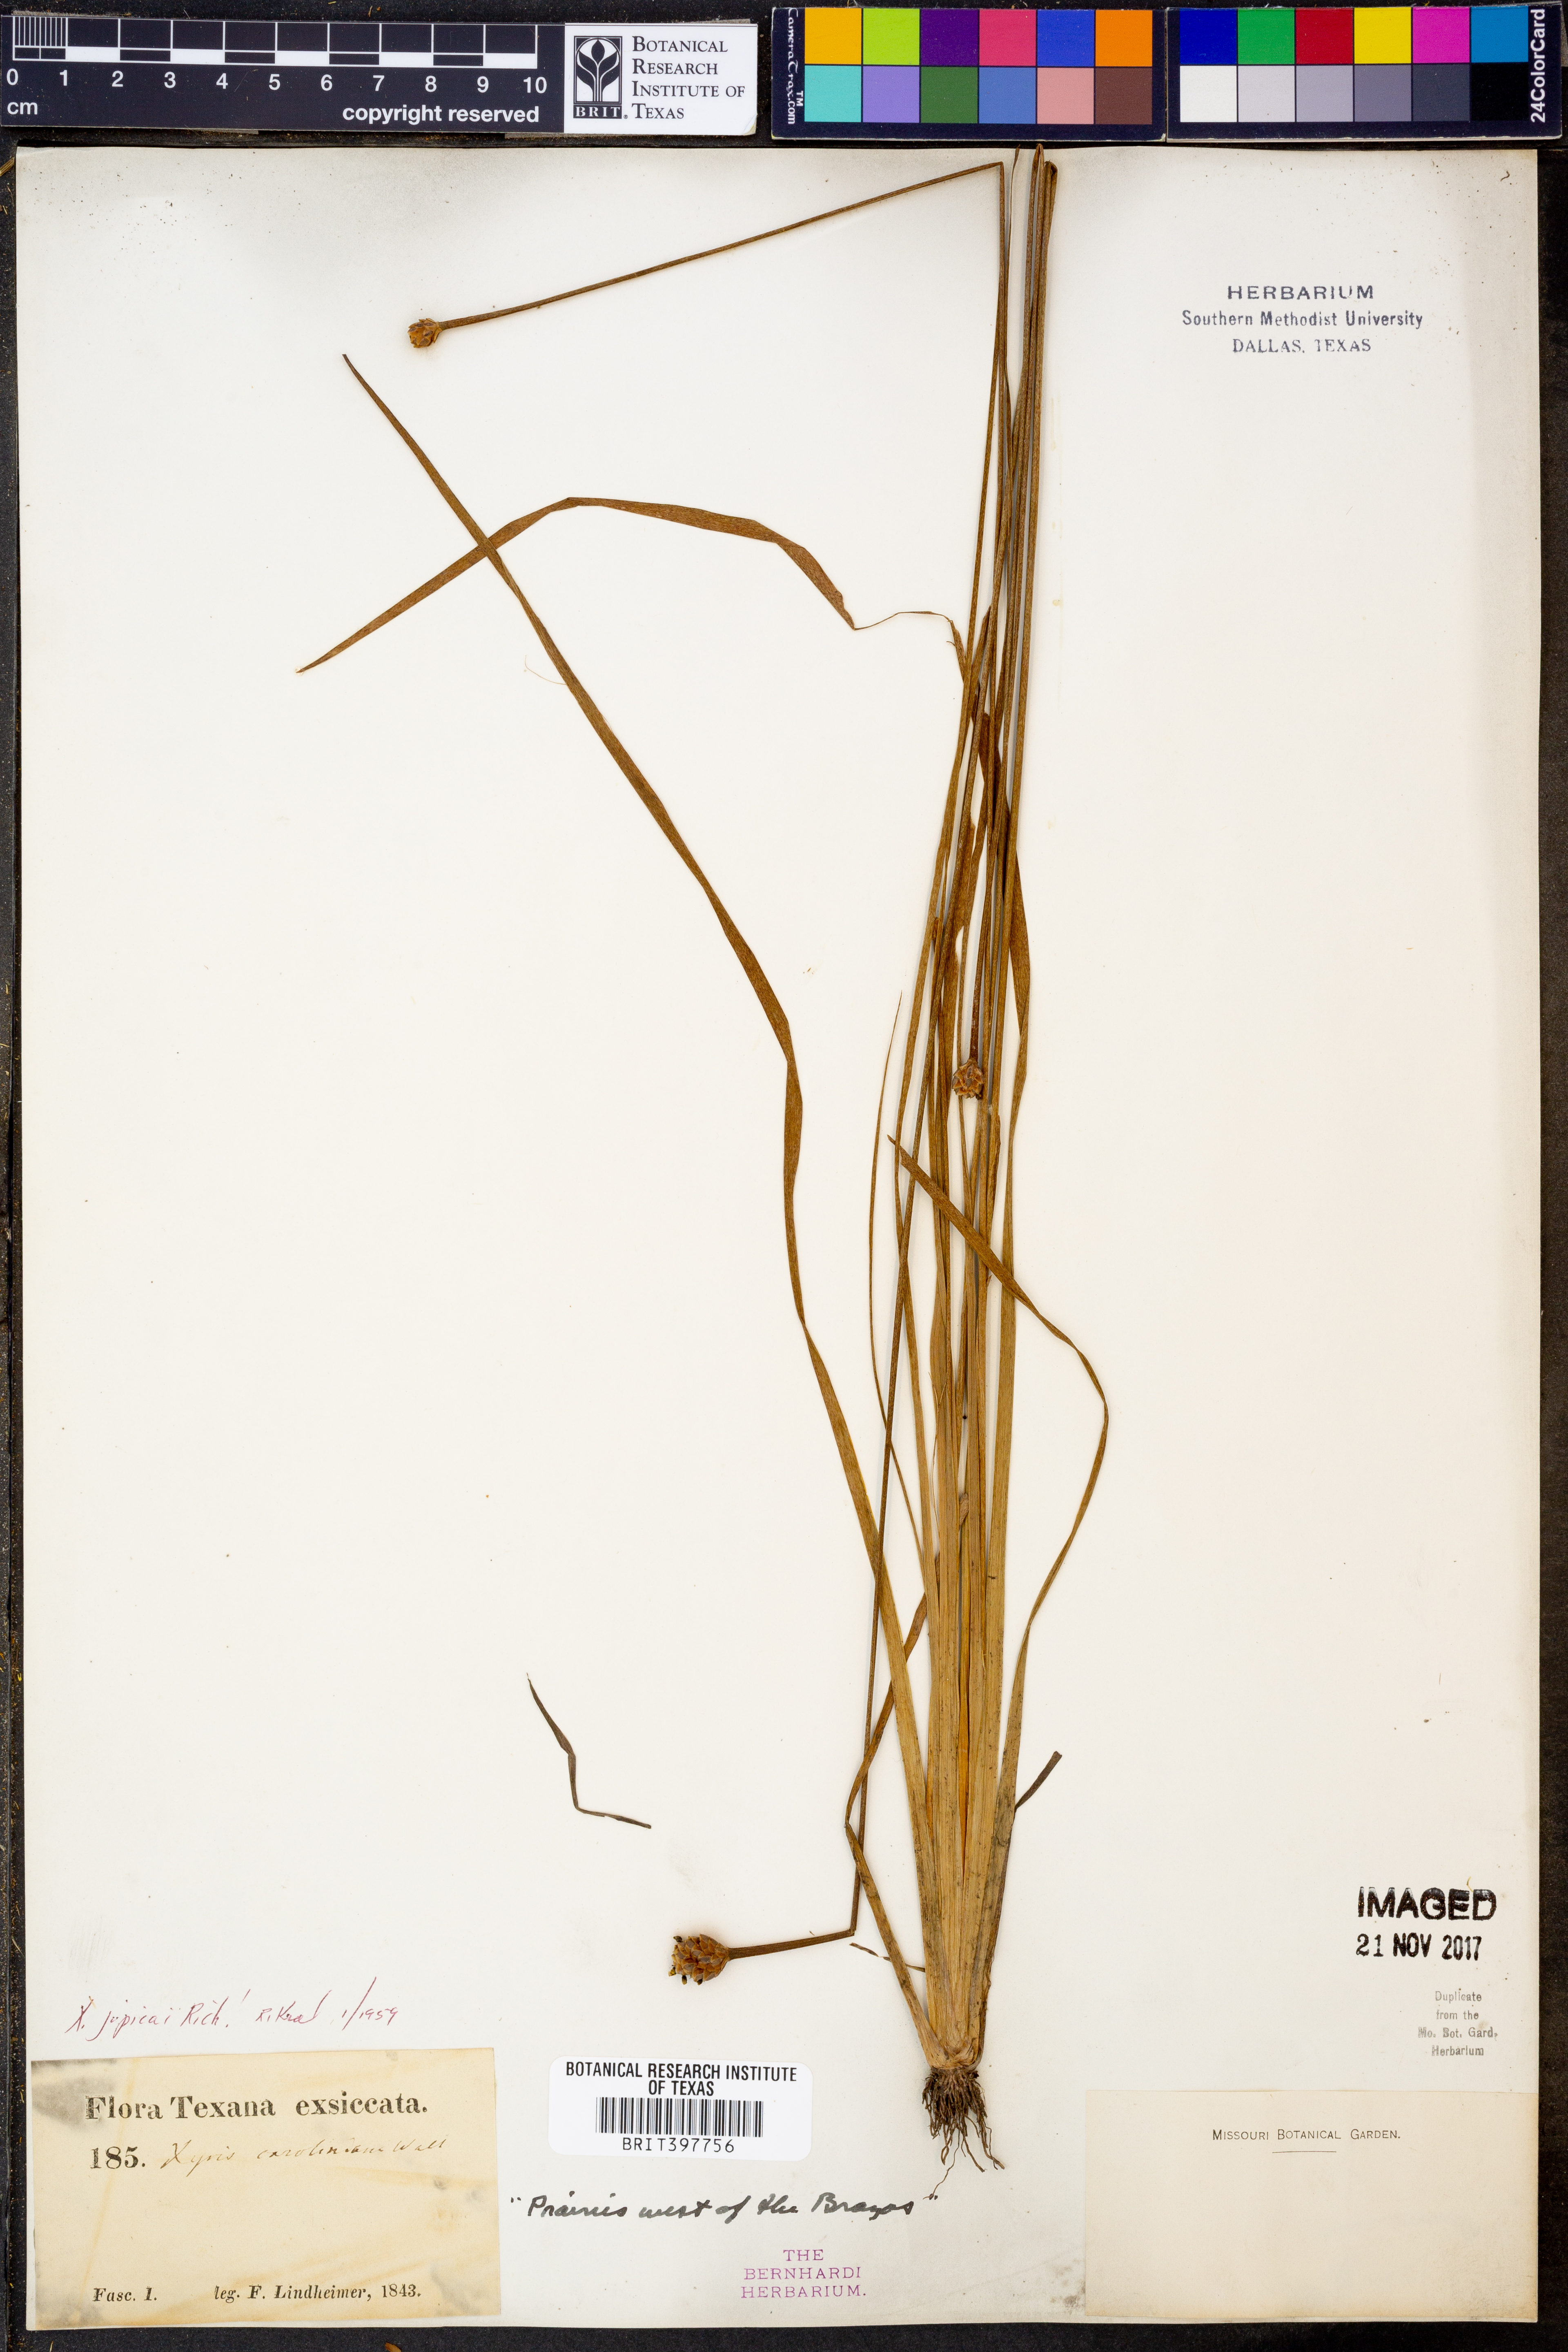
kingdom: Plantae
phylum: Tracheophyta
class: Liliopsida
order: Poales
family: Xyridaceae
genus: Xyris
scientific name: Xyris jupicai
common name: Richard's yelloweyed grass
